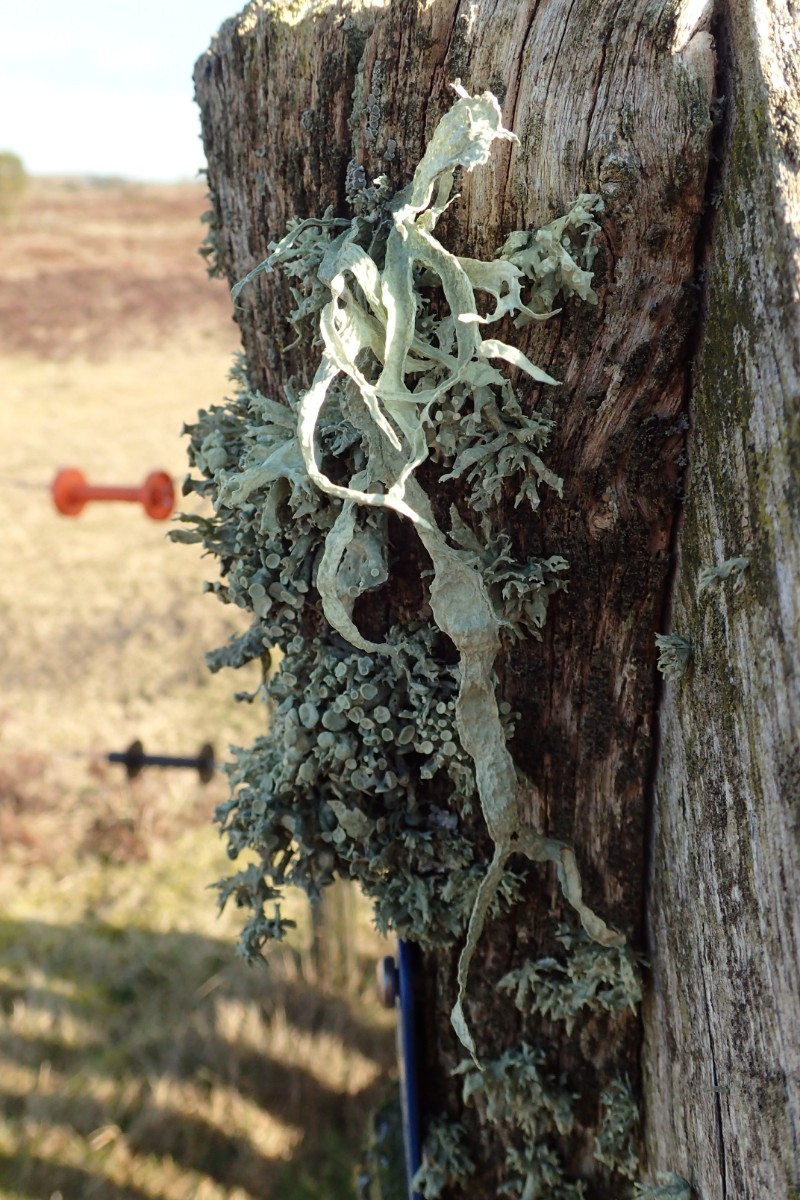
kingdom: Fungi
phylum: Ascomycota
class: Lecanoromycetes
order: Lecanorales
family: Ramalinaceae
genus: Ramalina
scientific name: Ramalina fraxinea
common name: stor grenlav
